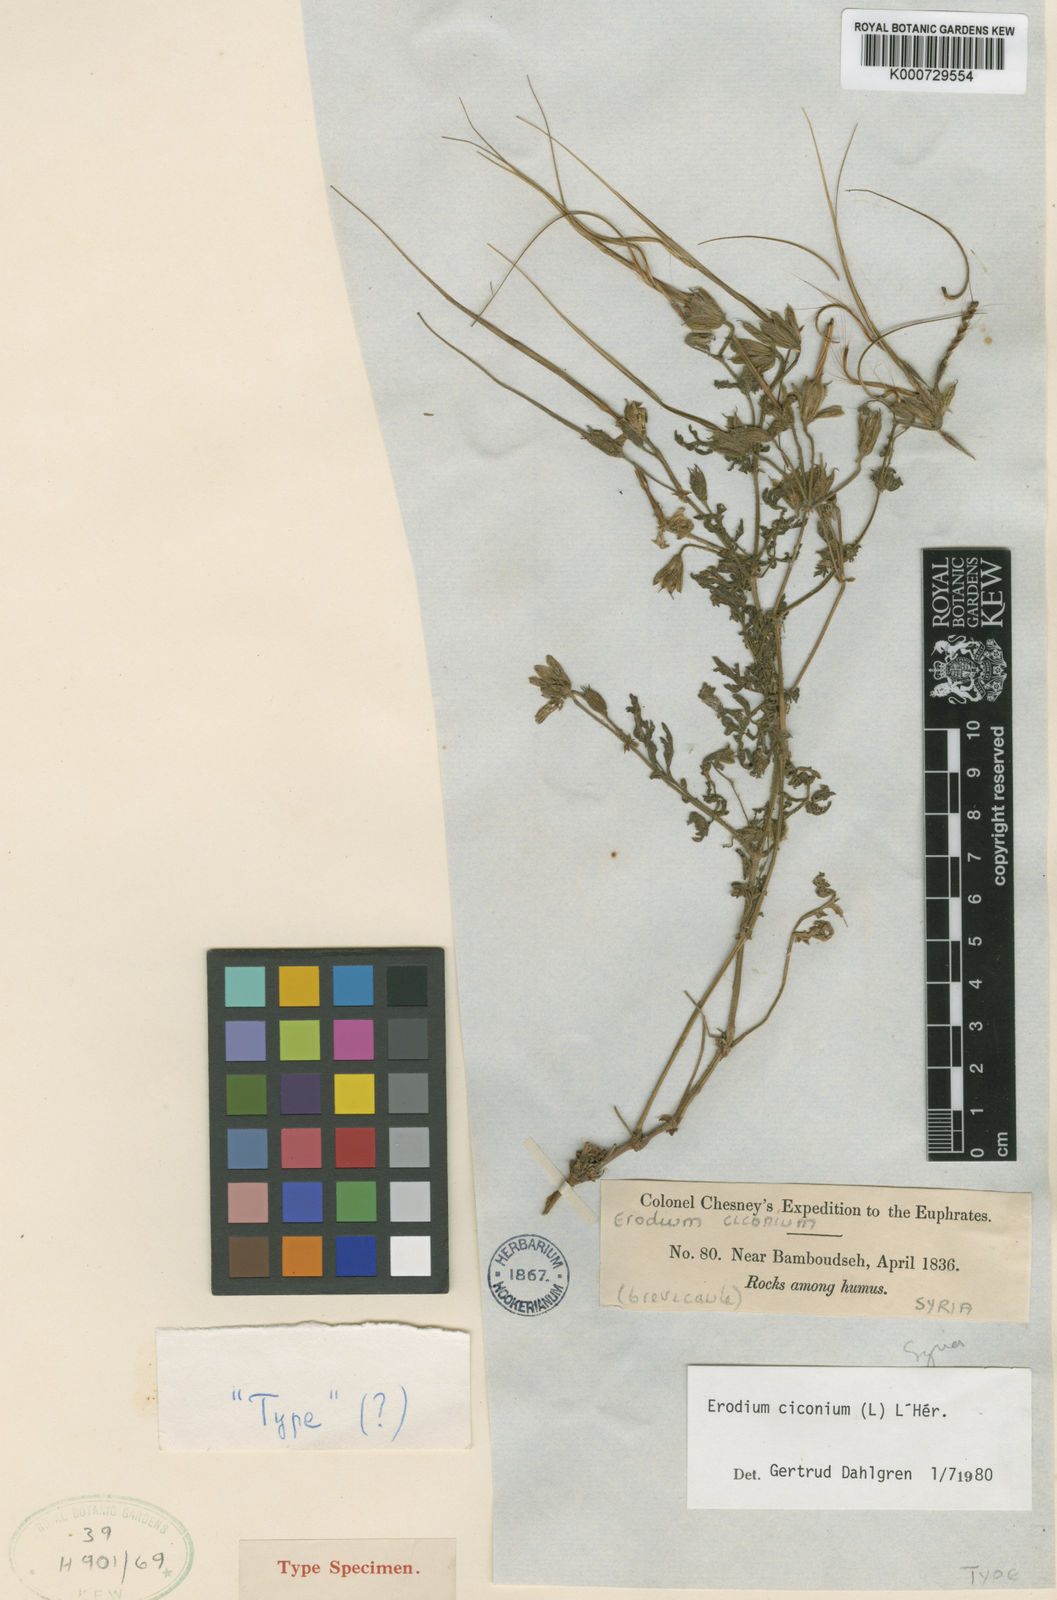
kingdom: Plantae
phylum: Tracheophyta
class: Magnoliopsida
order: Geraniales
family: Geraniaceae
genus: Erodium
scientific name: Erodium
